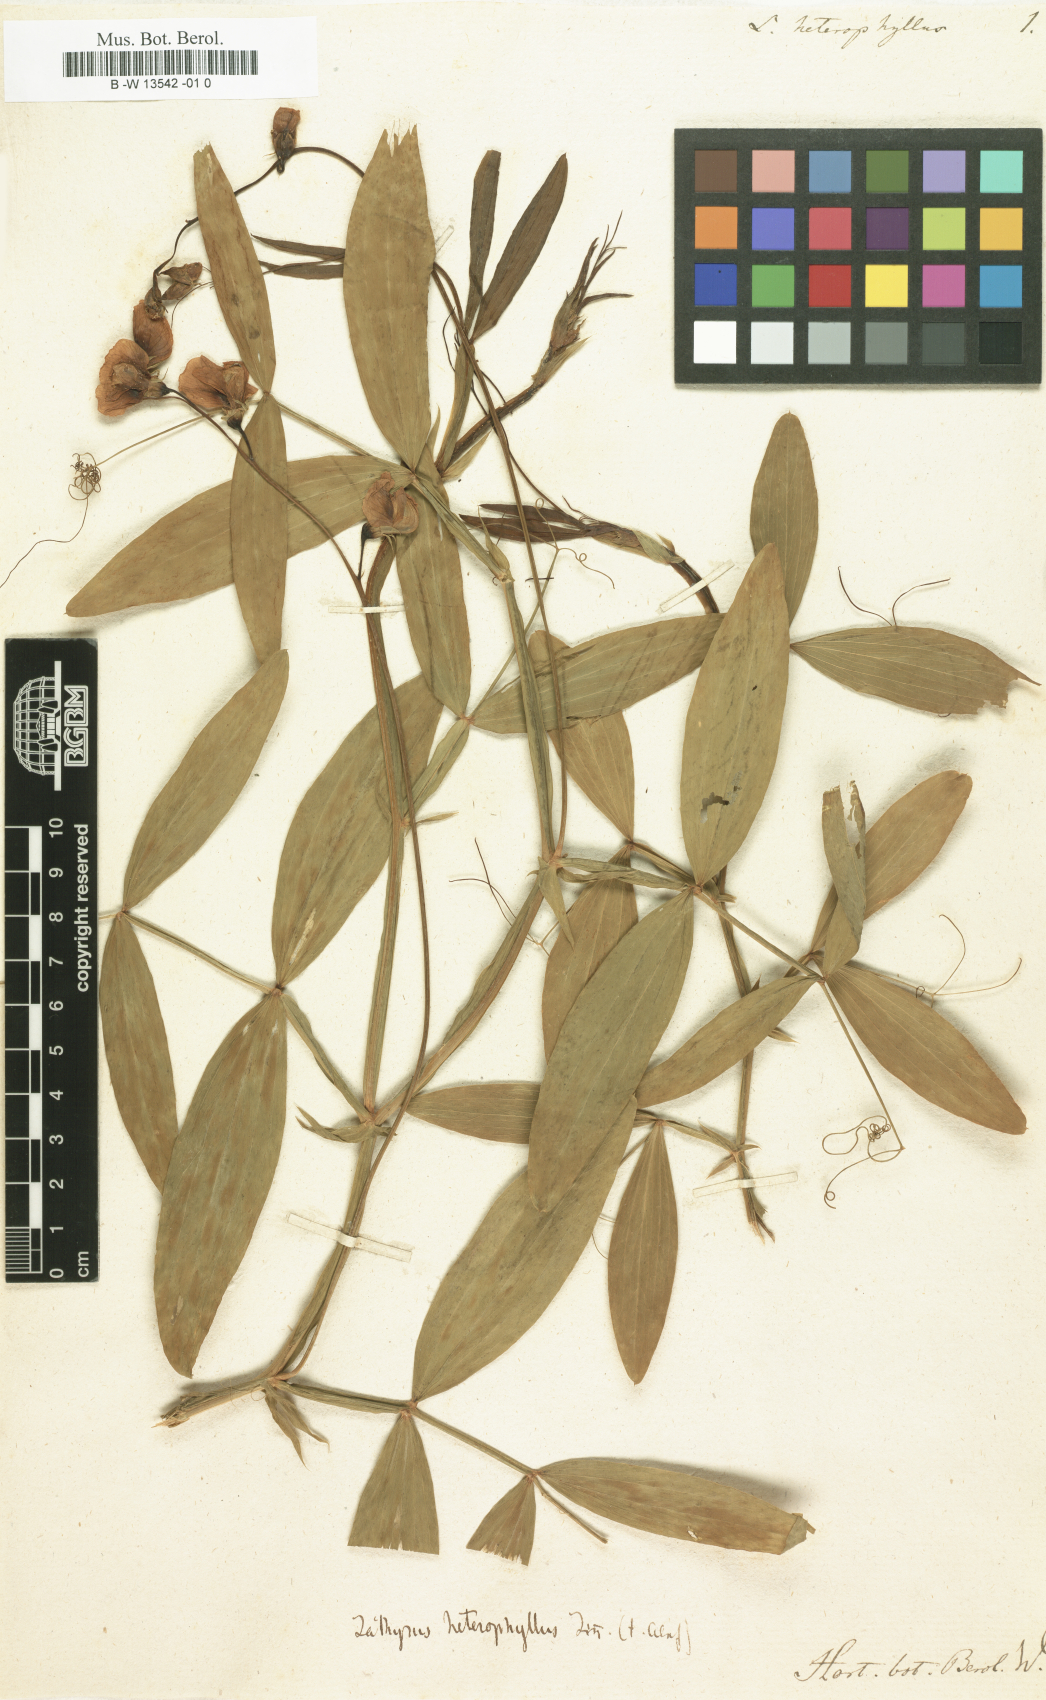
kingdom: Plantae
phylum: Tracheophyta
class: Magnoliopsida
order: Fabales
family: Fabaceae
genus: Lathyrus
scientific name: Lathyrus heterophyllus
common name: Norfolk everlasting-pea
